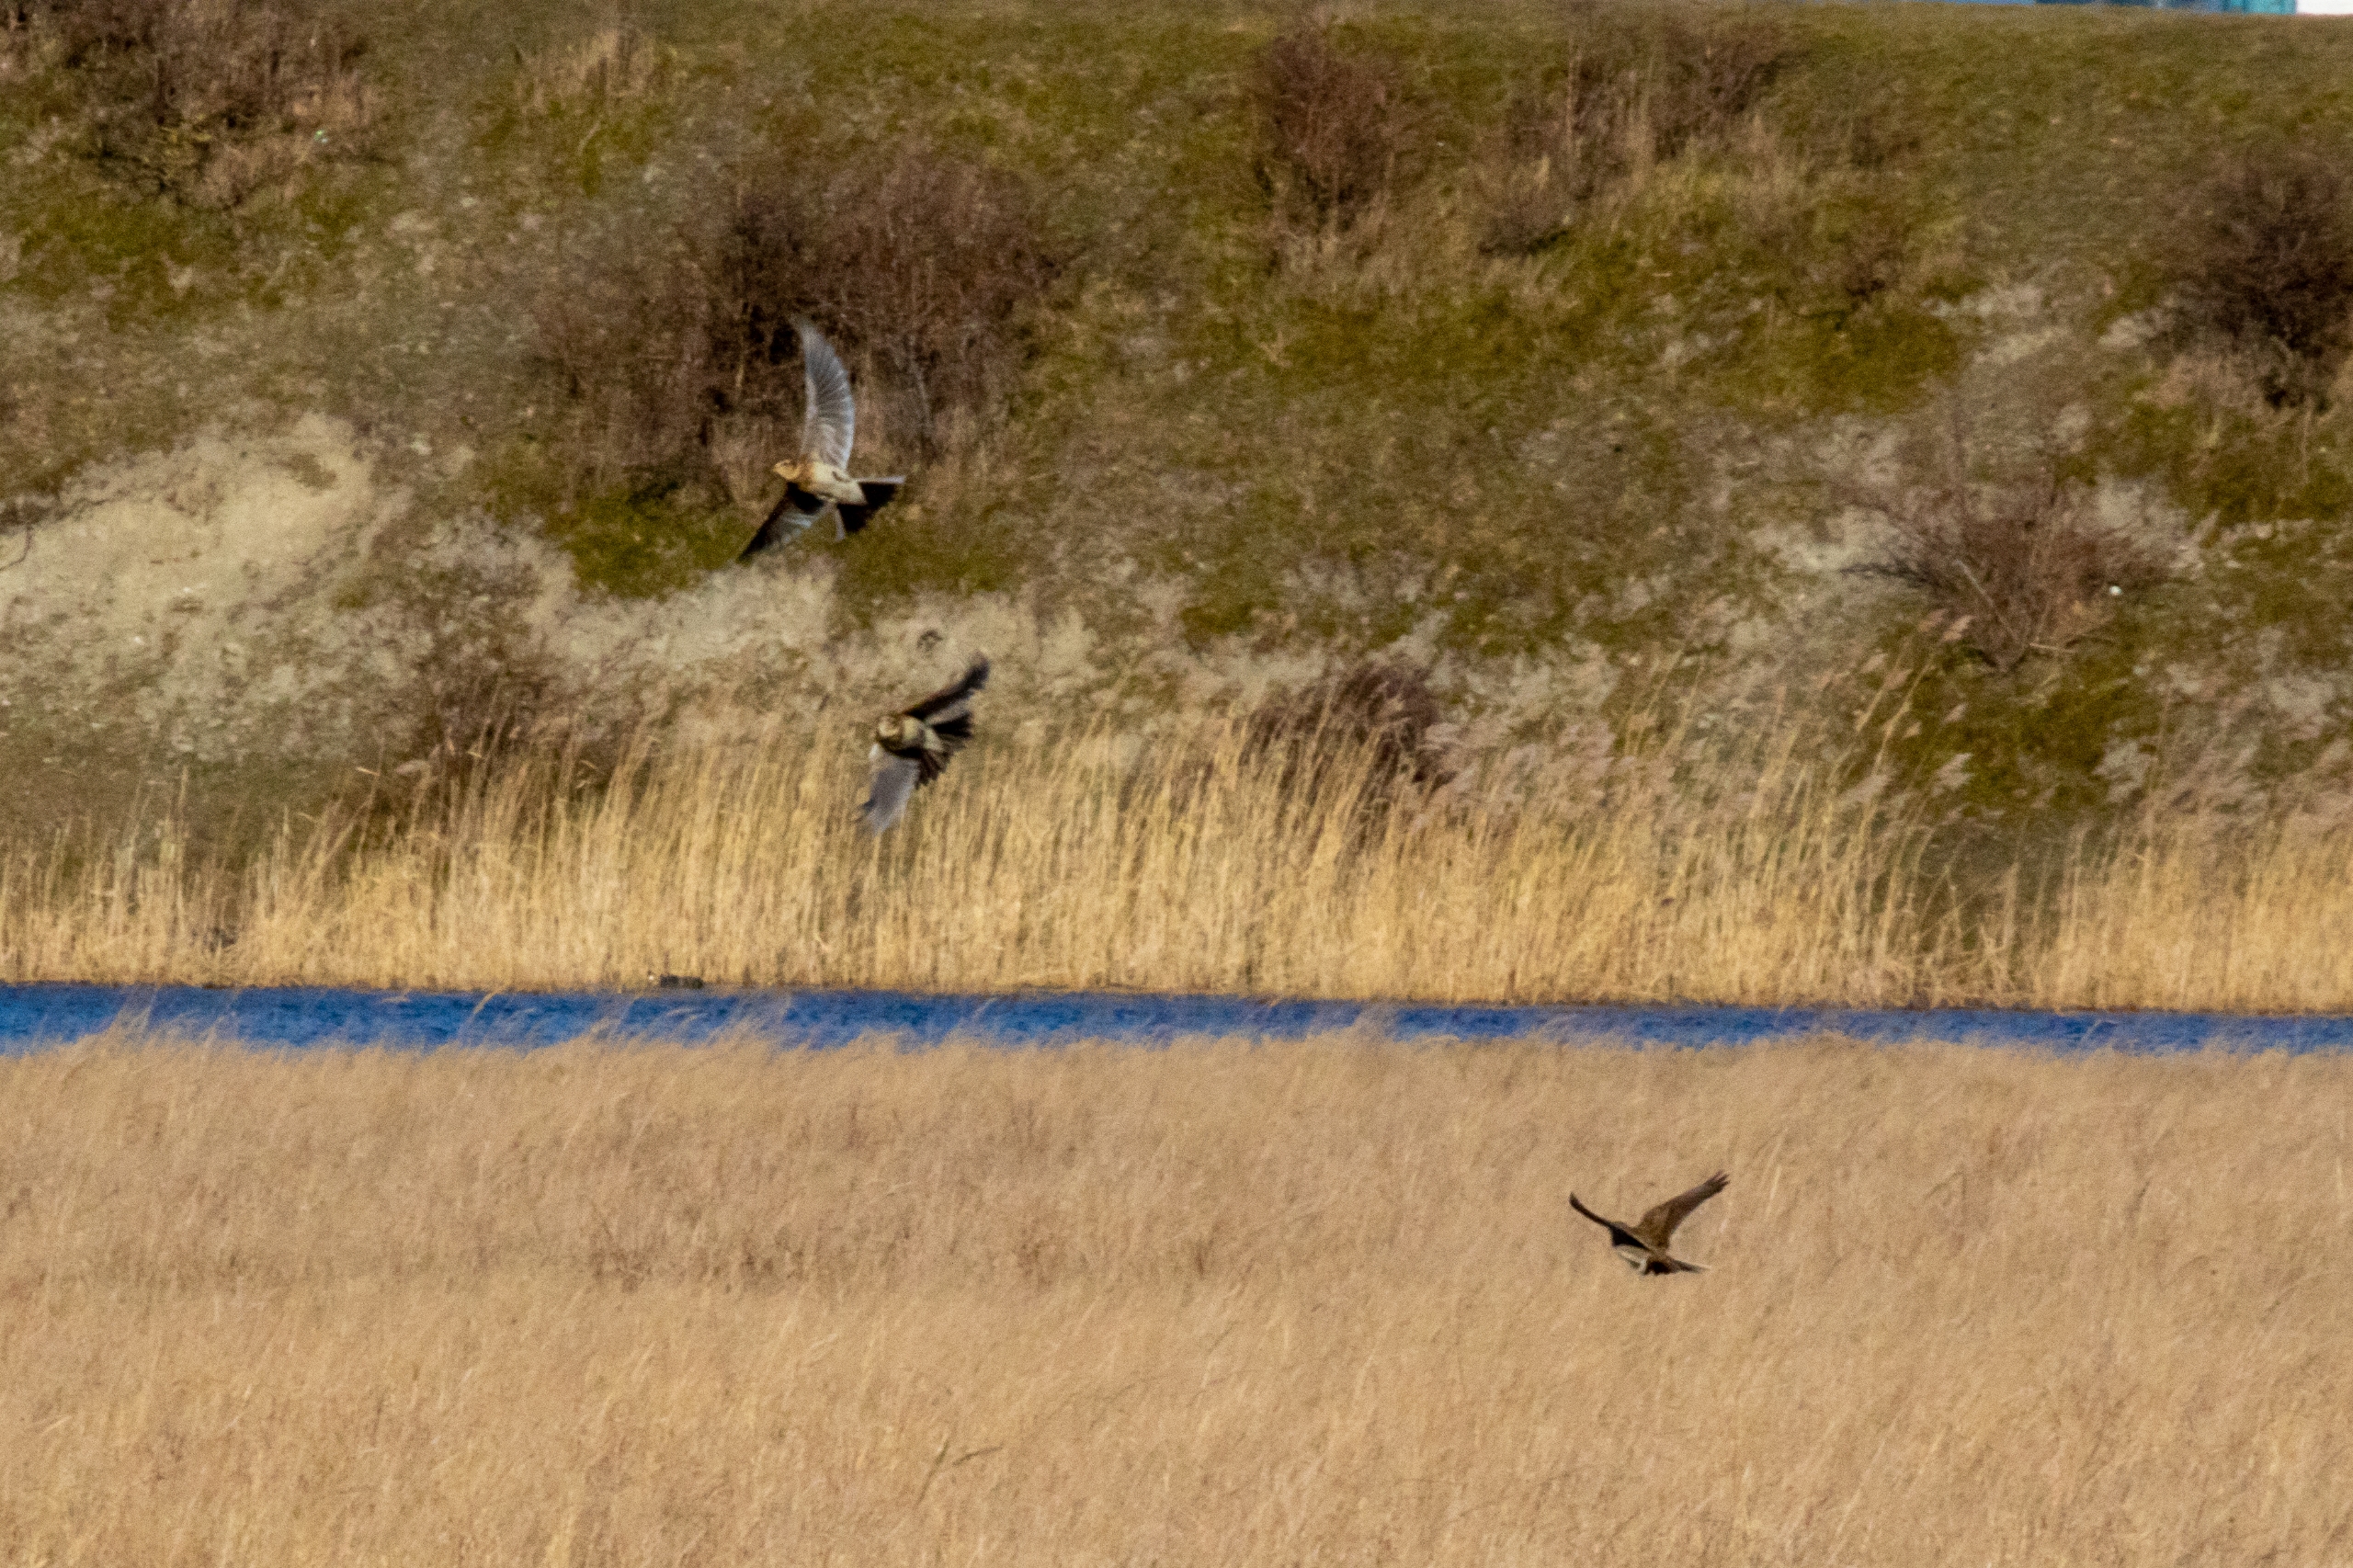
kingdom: Animalia
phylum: Chordata
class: Aves
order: Passeriformes
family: Alaudidae
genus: Alauda
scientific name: Alauda arvensis
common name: Sanglærke
